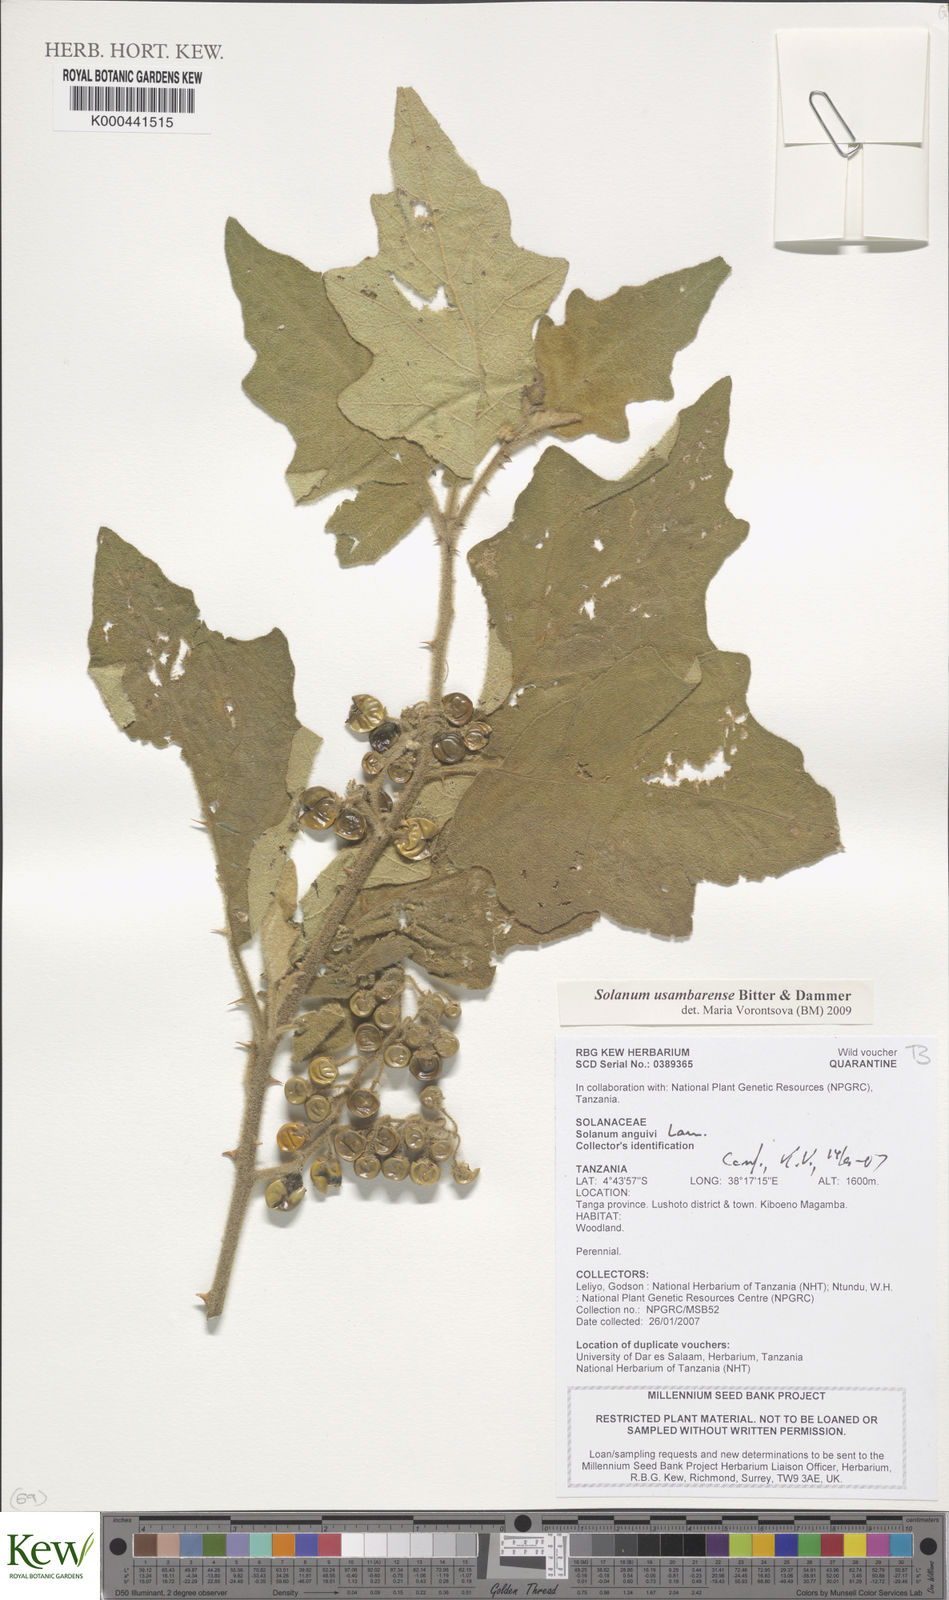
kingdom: Plantae
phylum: Tracheophyta
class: Magnoliopsida
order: Solanales
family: Solanaceae
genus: Solanum
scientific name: Solanum usambarense
